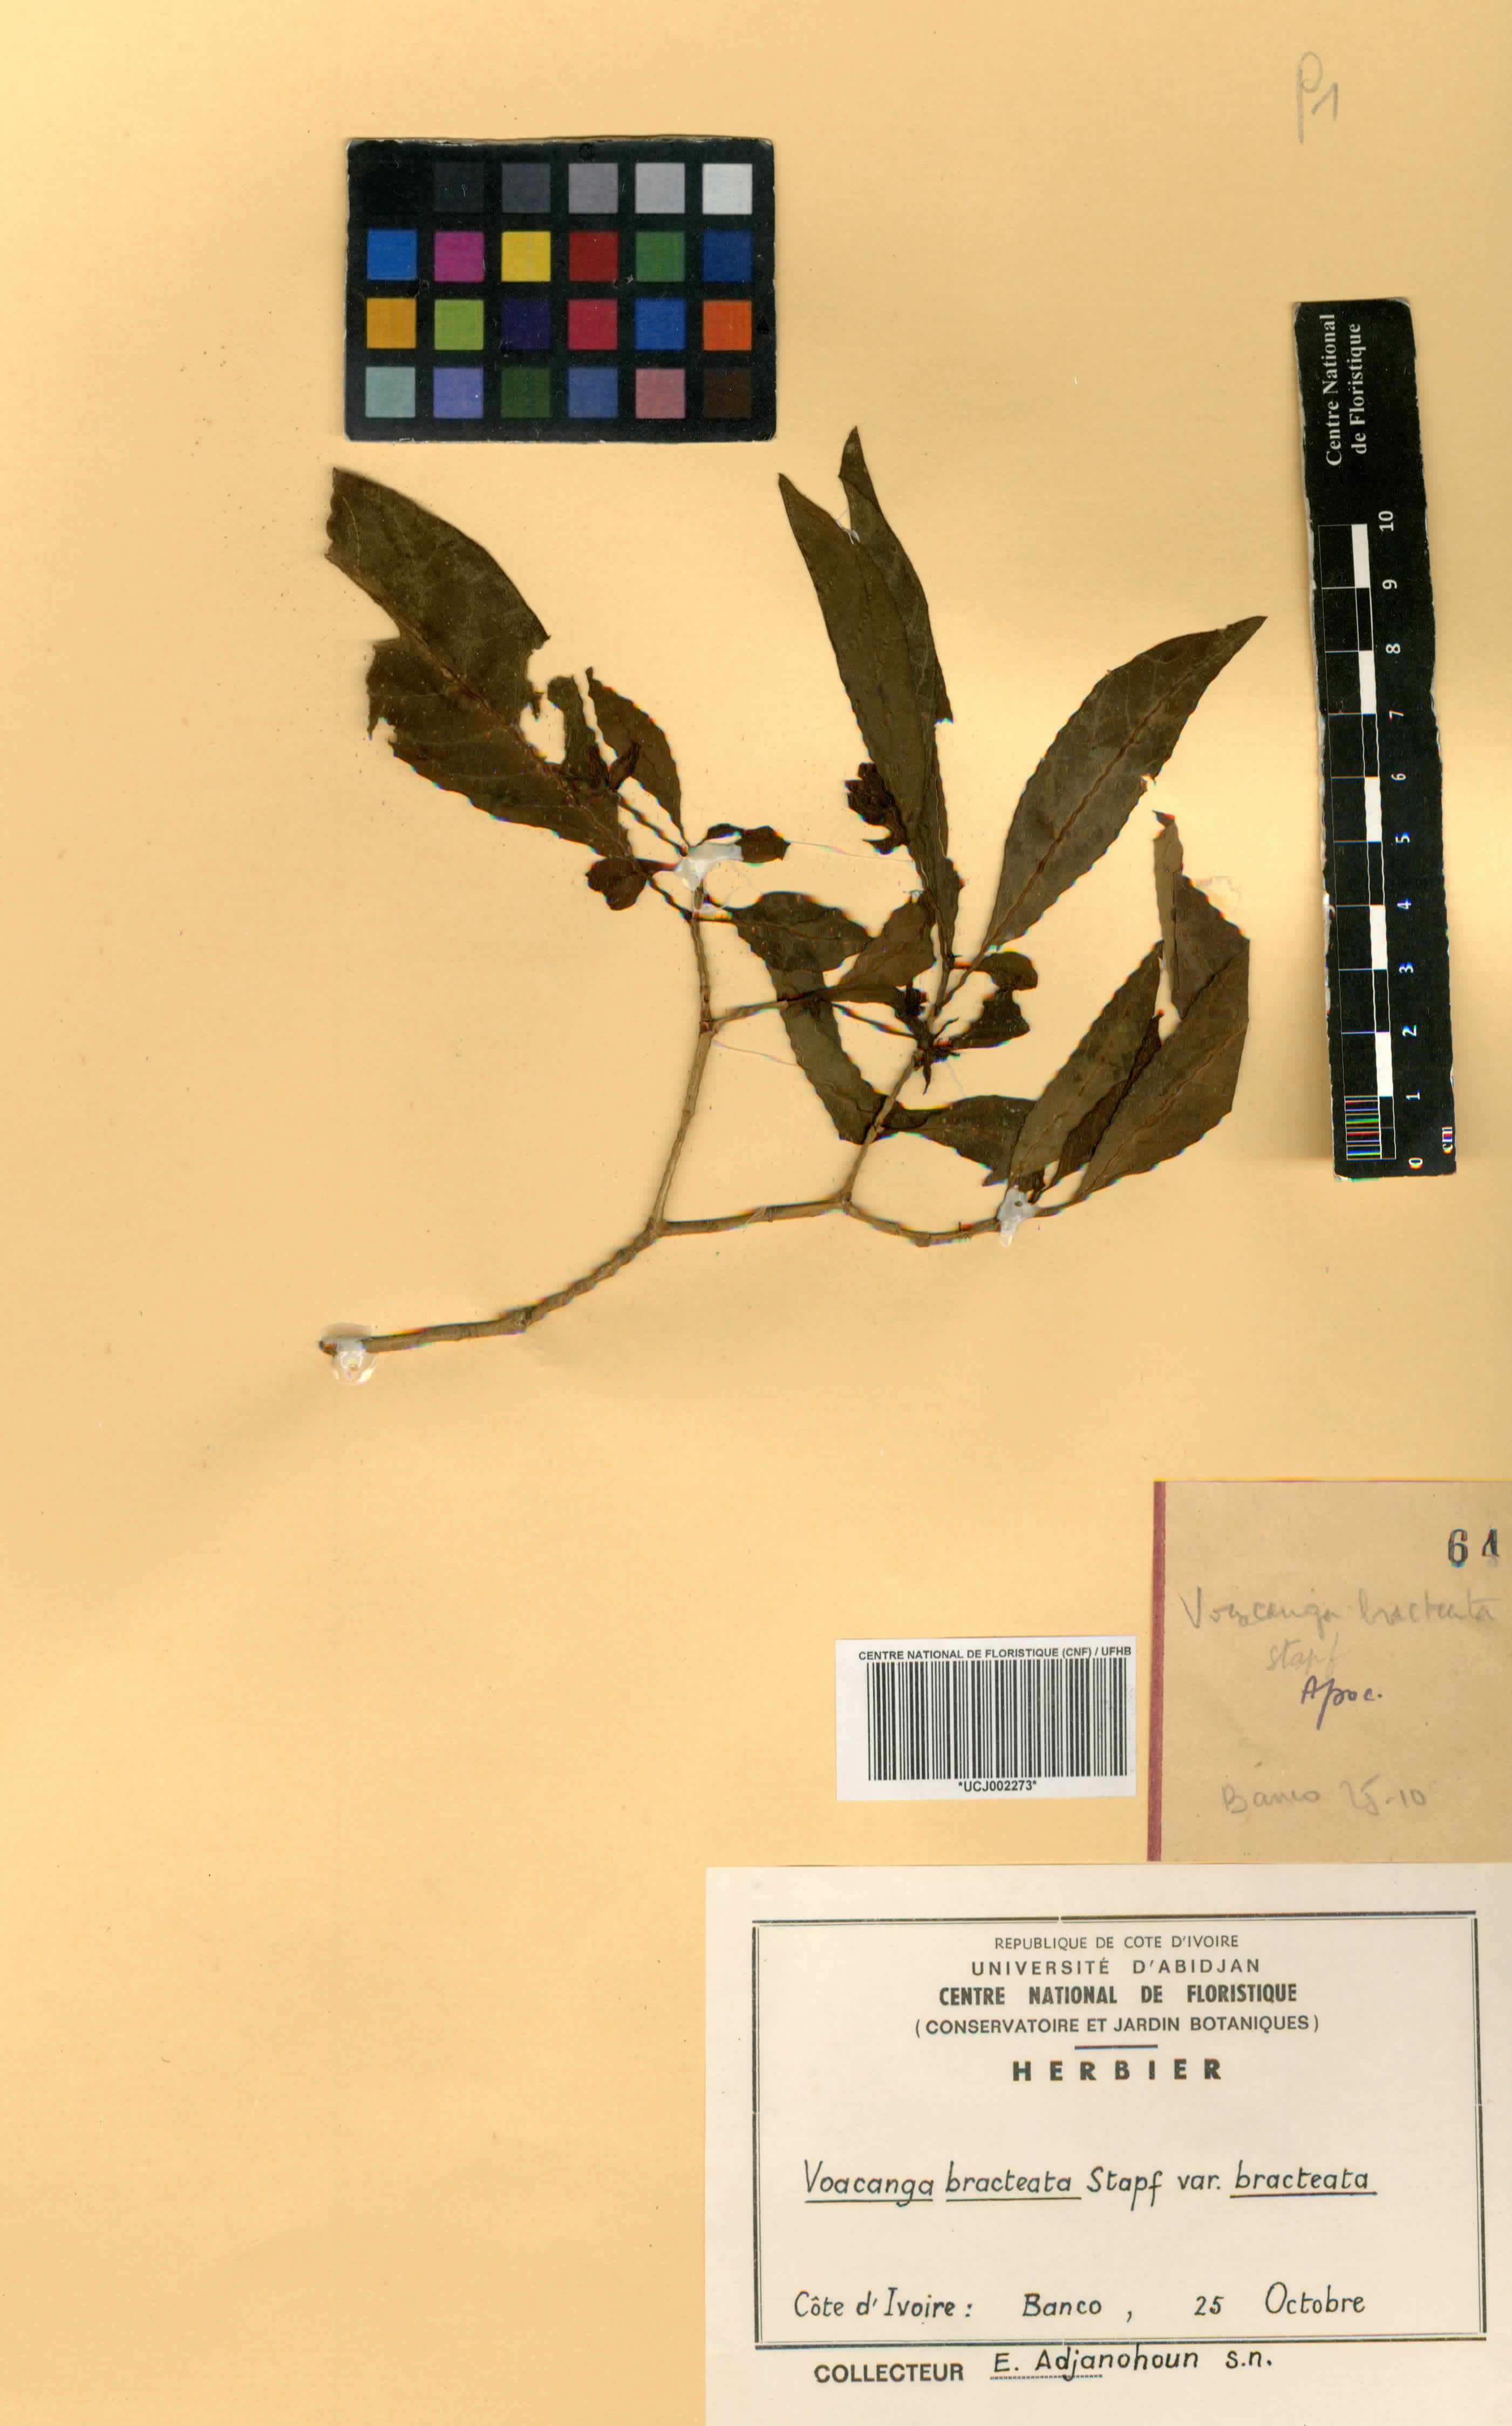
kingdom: Plantae
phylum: Tracheophyta
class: Magnoliopsida
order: Gentianales
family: Apocynaceae
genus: Voacanga
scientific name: Voacanga bracteata
